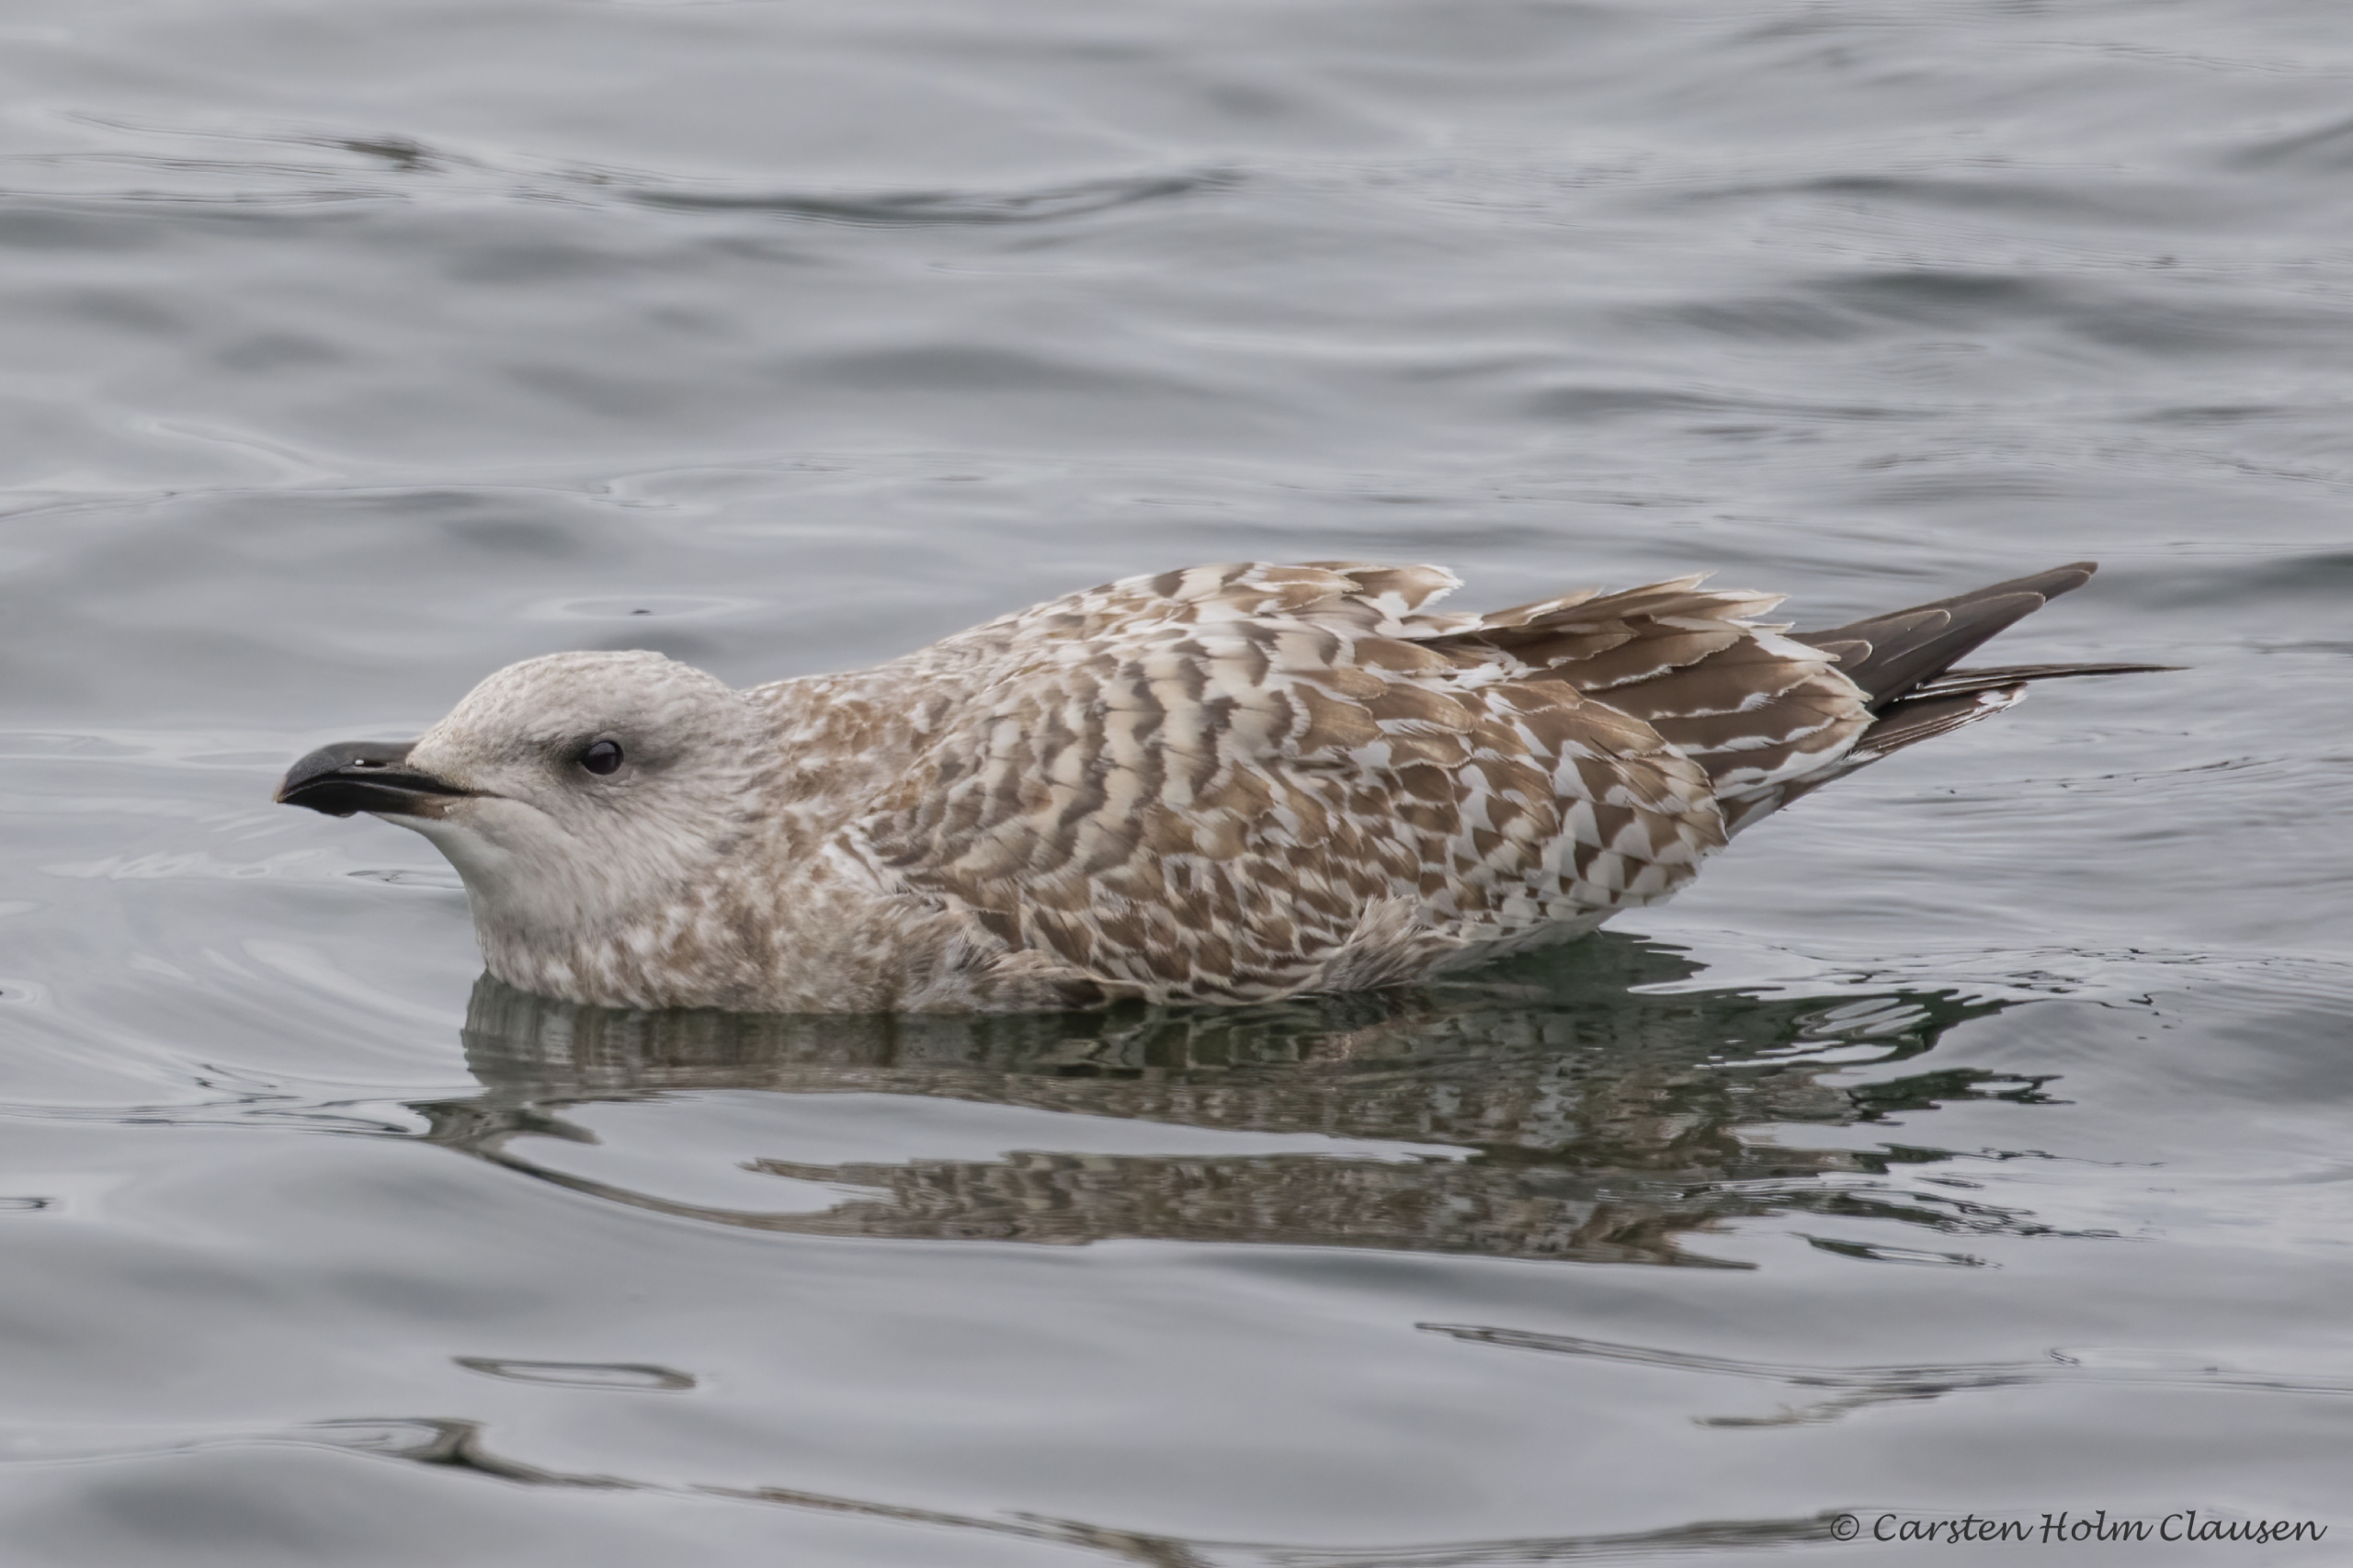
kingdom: Animalia
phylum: Chordata
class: Aves
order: Charadriiformes
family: Laridae
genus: Larus
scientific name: Larus argentatus
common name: Sølvmåge
